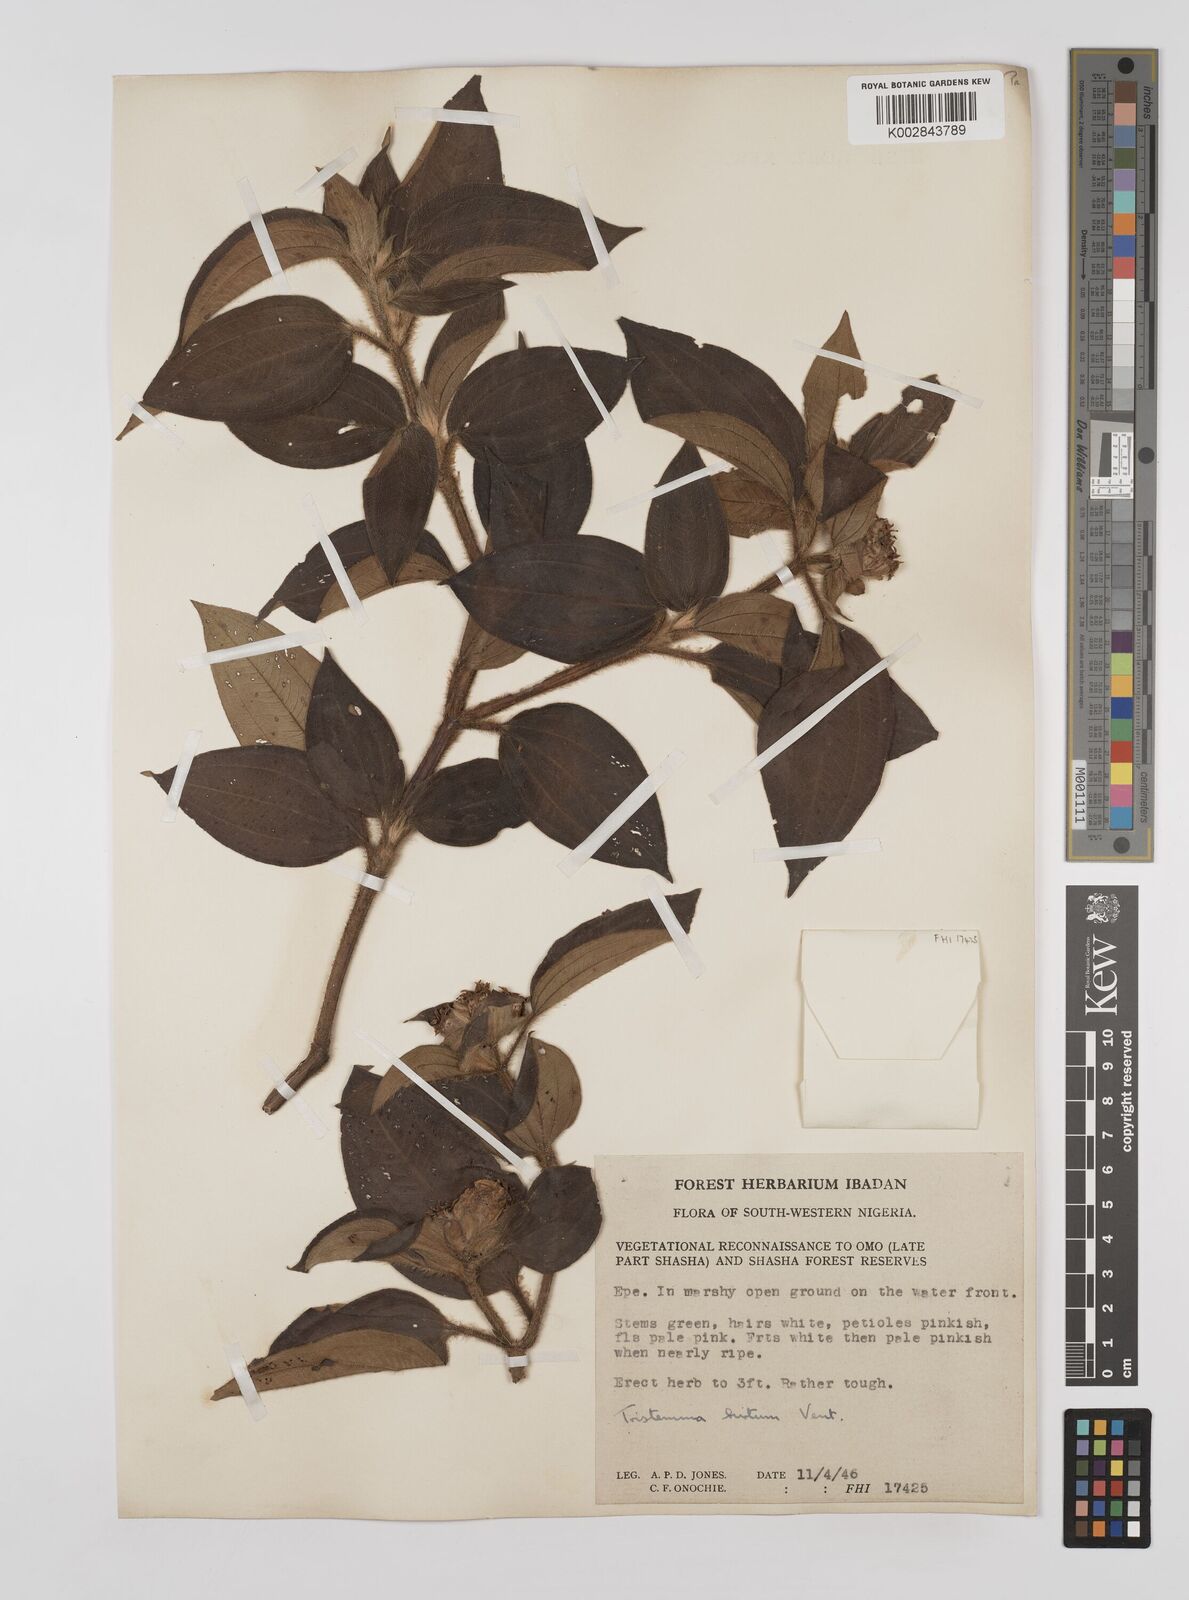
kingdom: Plantae
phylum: Tracheophyta
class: Magnoliopsida
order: Myrtales
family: Melastomataceae
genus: Tristemma
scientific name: Tristemma hirtum
